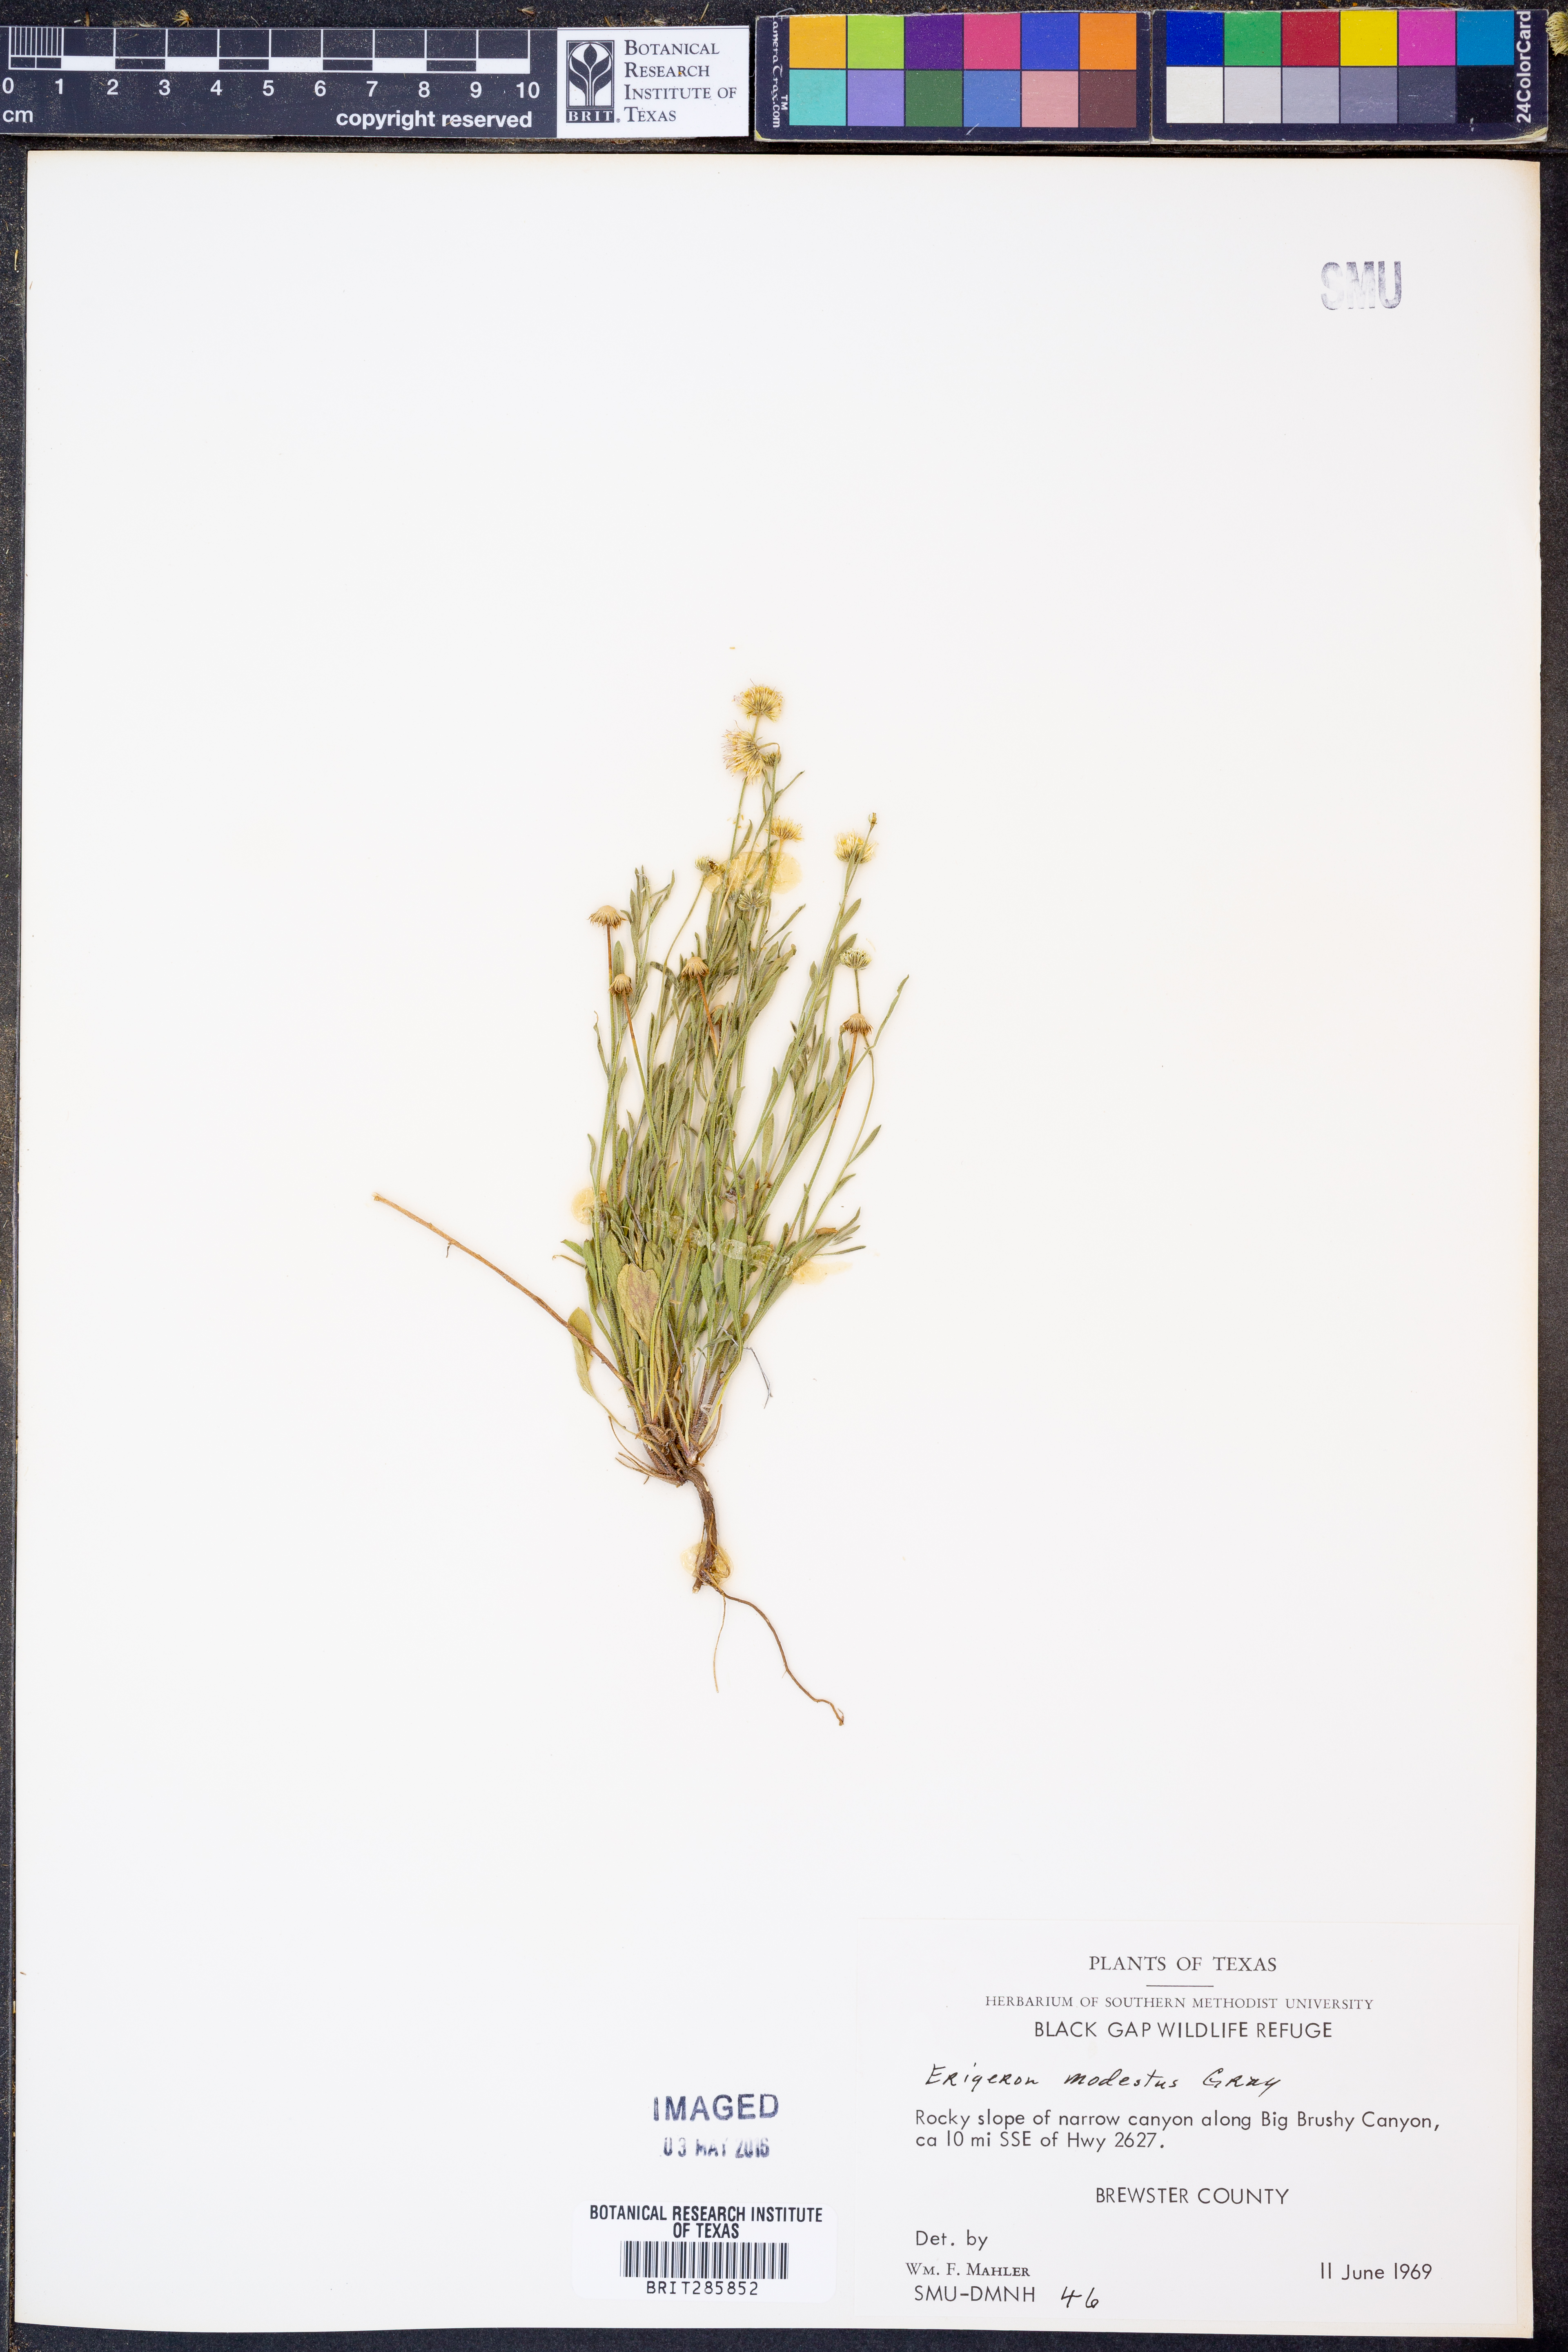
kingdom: Plantae
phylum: Tracheophyta
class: Magnoliopsida
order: Asterales
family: Asteraceae
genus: Erigeron
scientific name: Erigeron modestus
